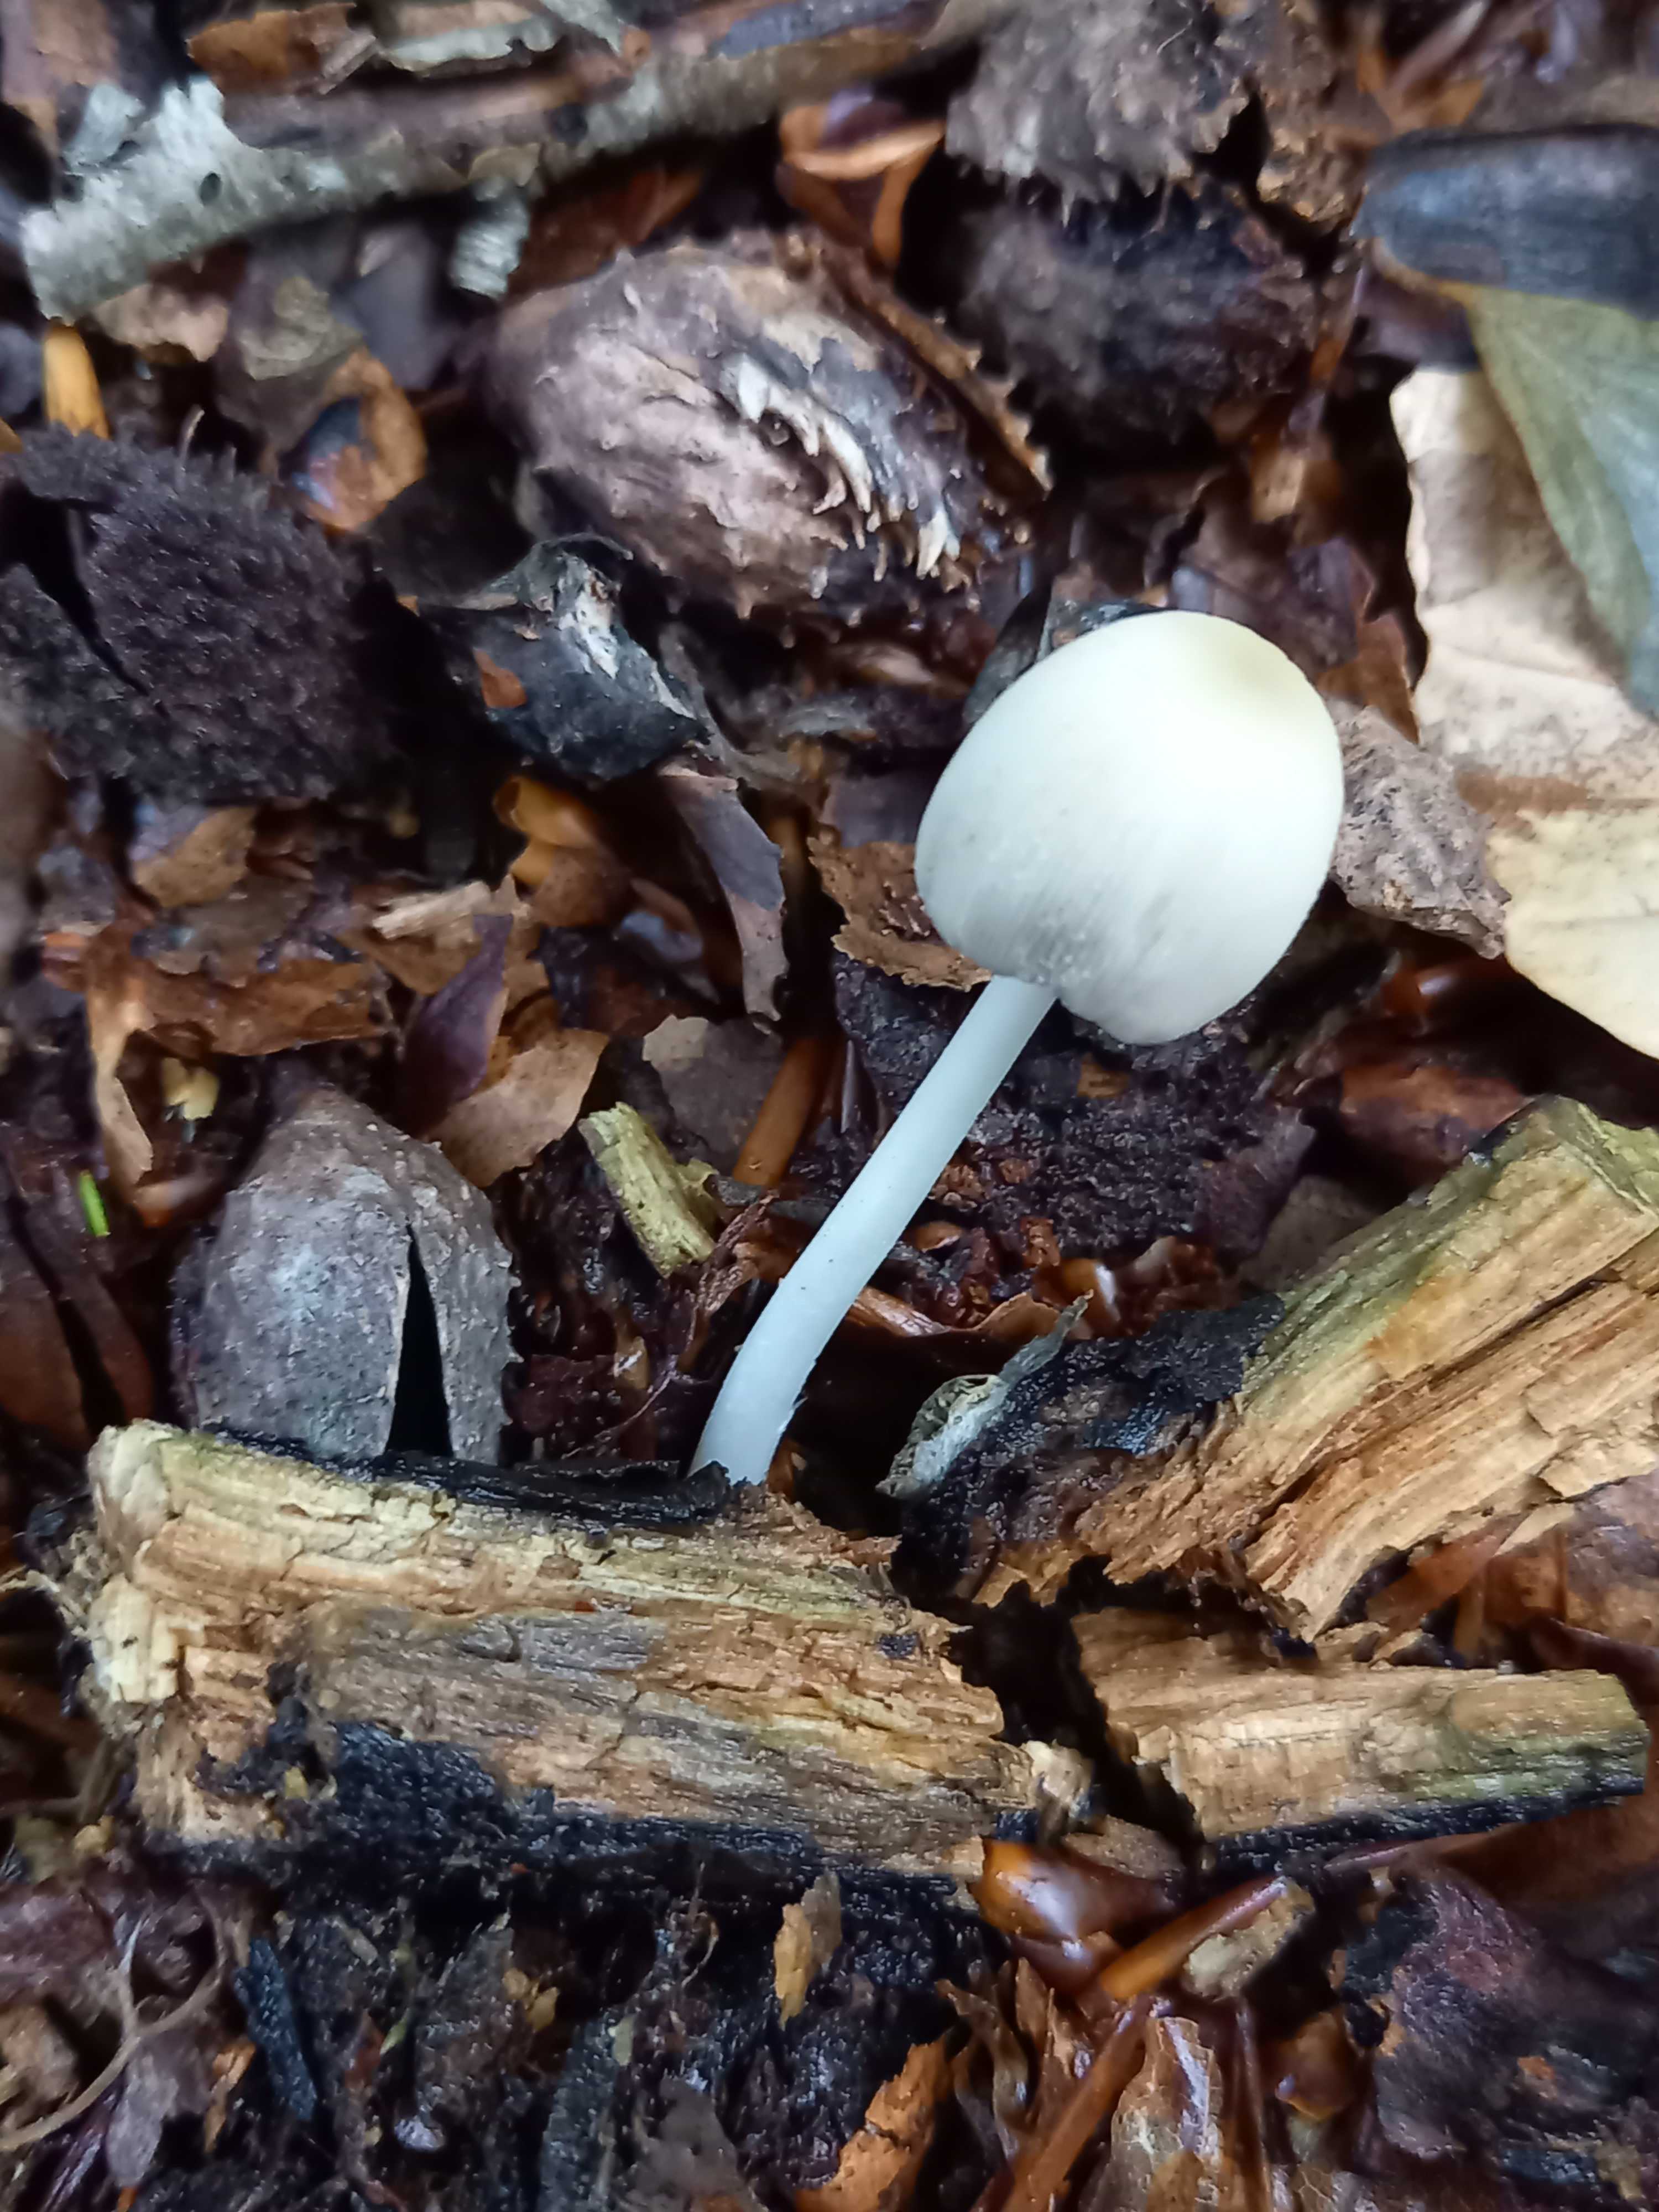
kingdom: Fungi
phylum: Basidiomycota
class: Agaricomycetes
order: Agaricales
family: Psathyrellaceae
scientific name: Psathyrellaceae
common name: mørkhatfamilien
